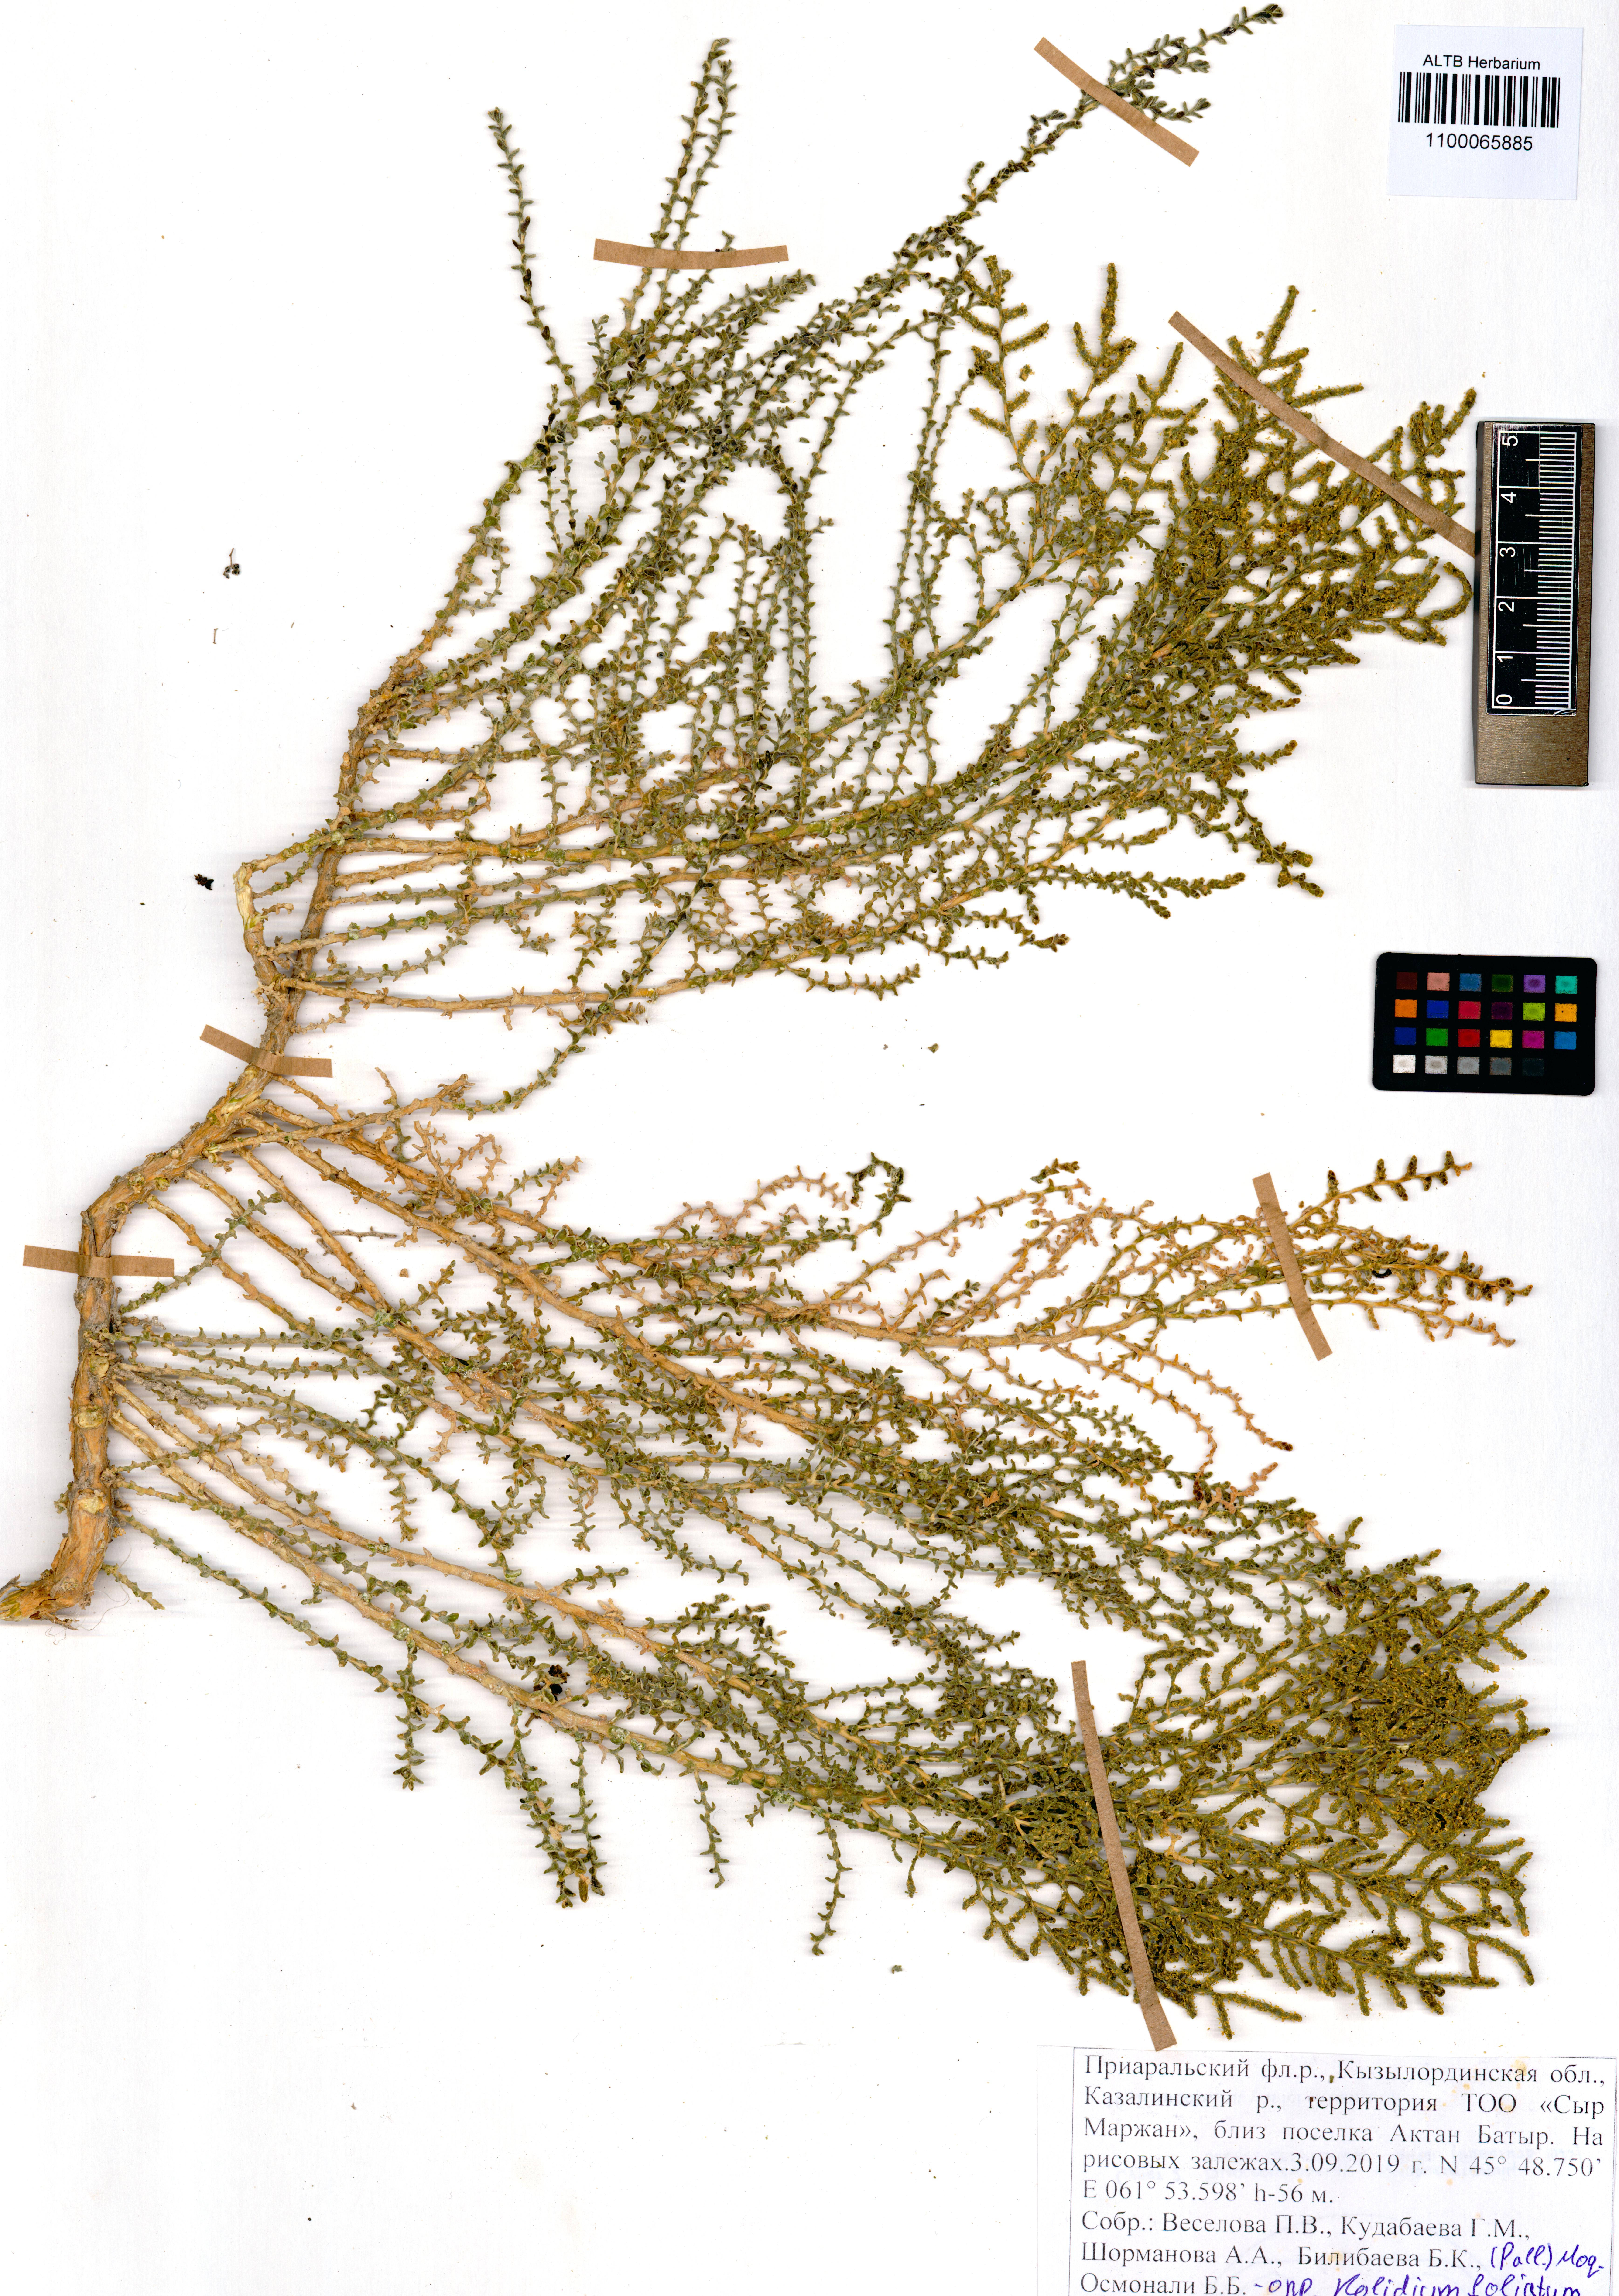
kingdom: Plantae
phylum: Tracheophyta
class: Magnoliopsida
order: Caryophyllales
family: Amaranthaceae
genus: Kalidium
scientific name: Kalidium foliatum
